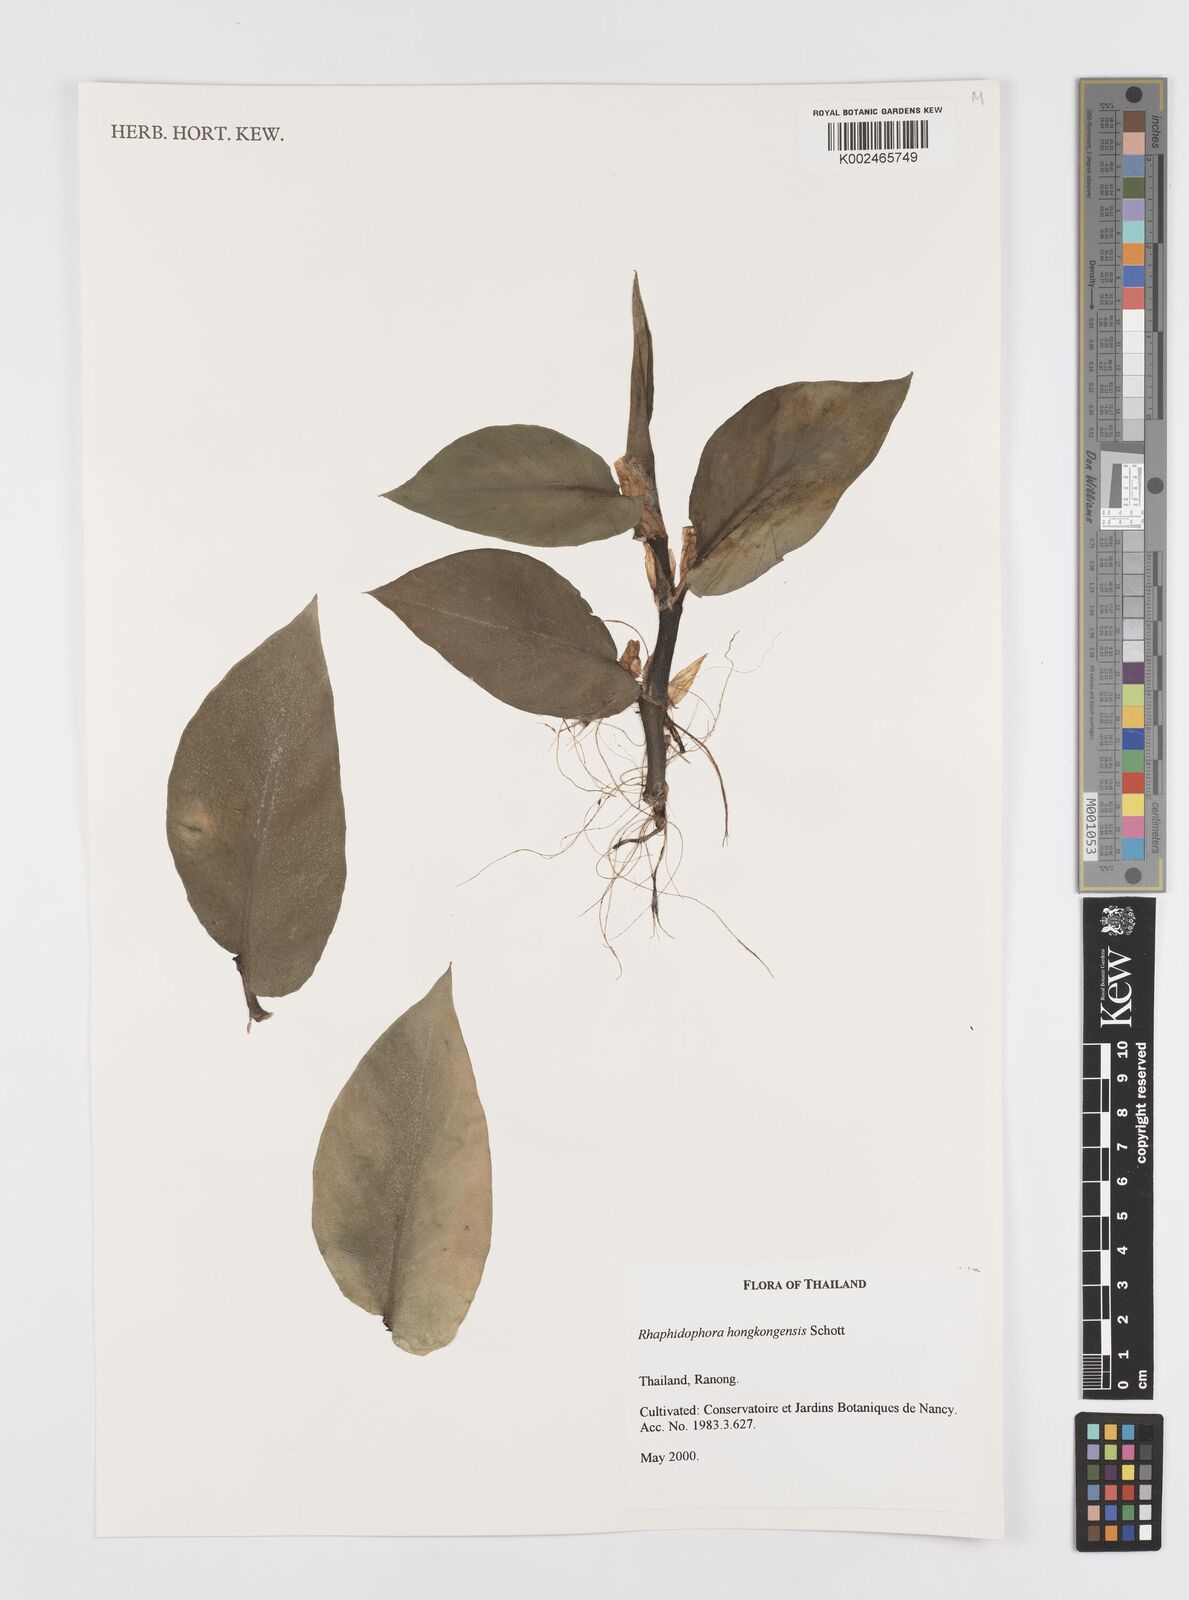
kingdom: Plantae
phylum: Tracheophyta
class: Liliopsida
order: Alismatales
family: Araceae
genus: Rhaphidophora
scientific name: Rhaphidophora
